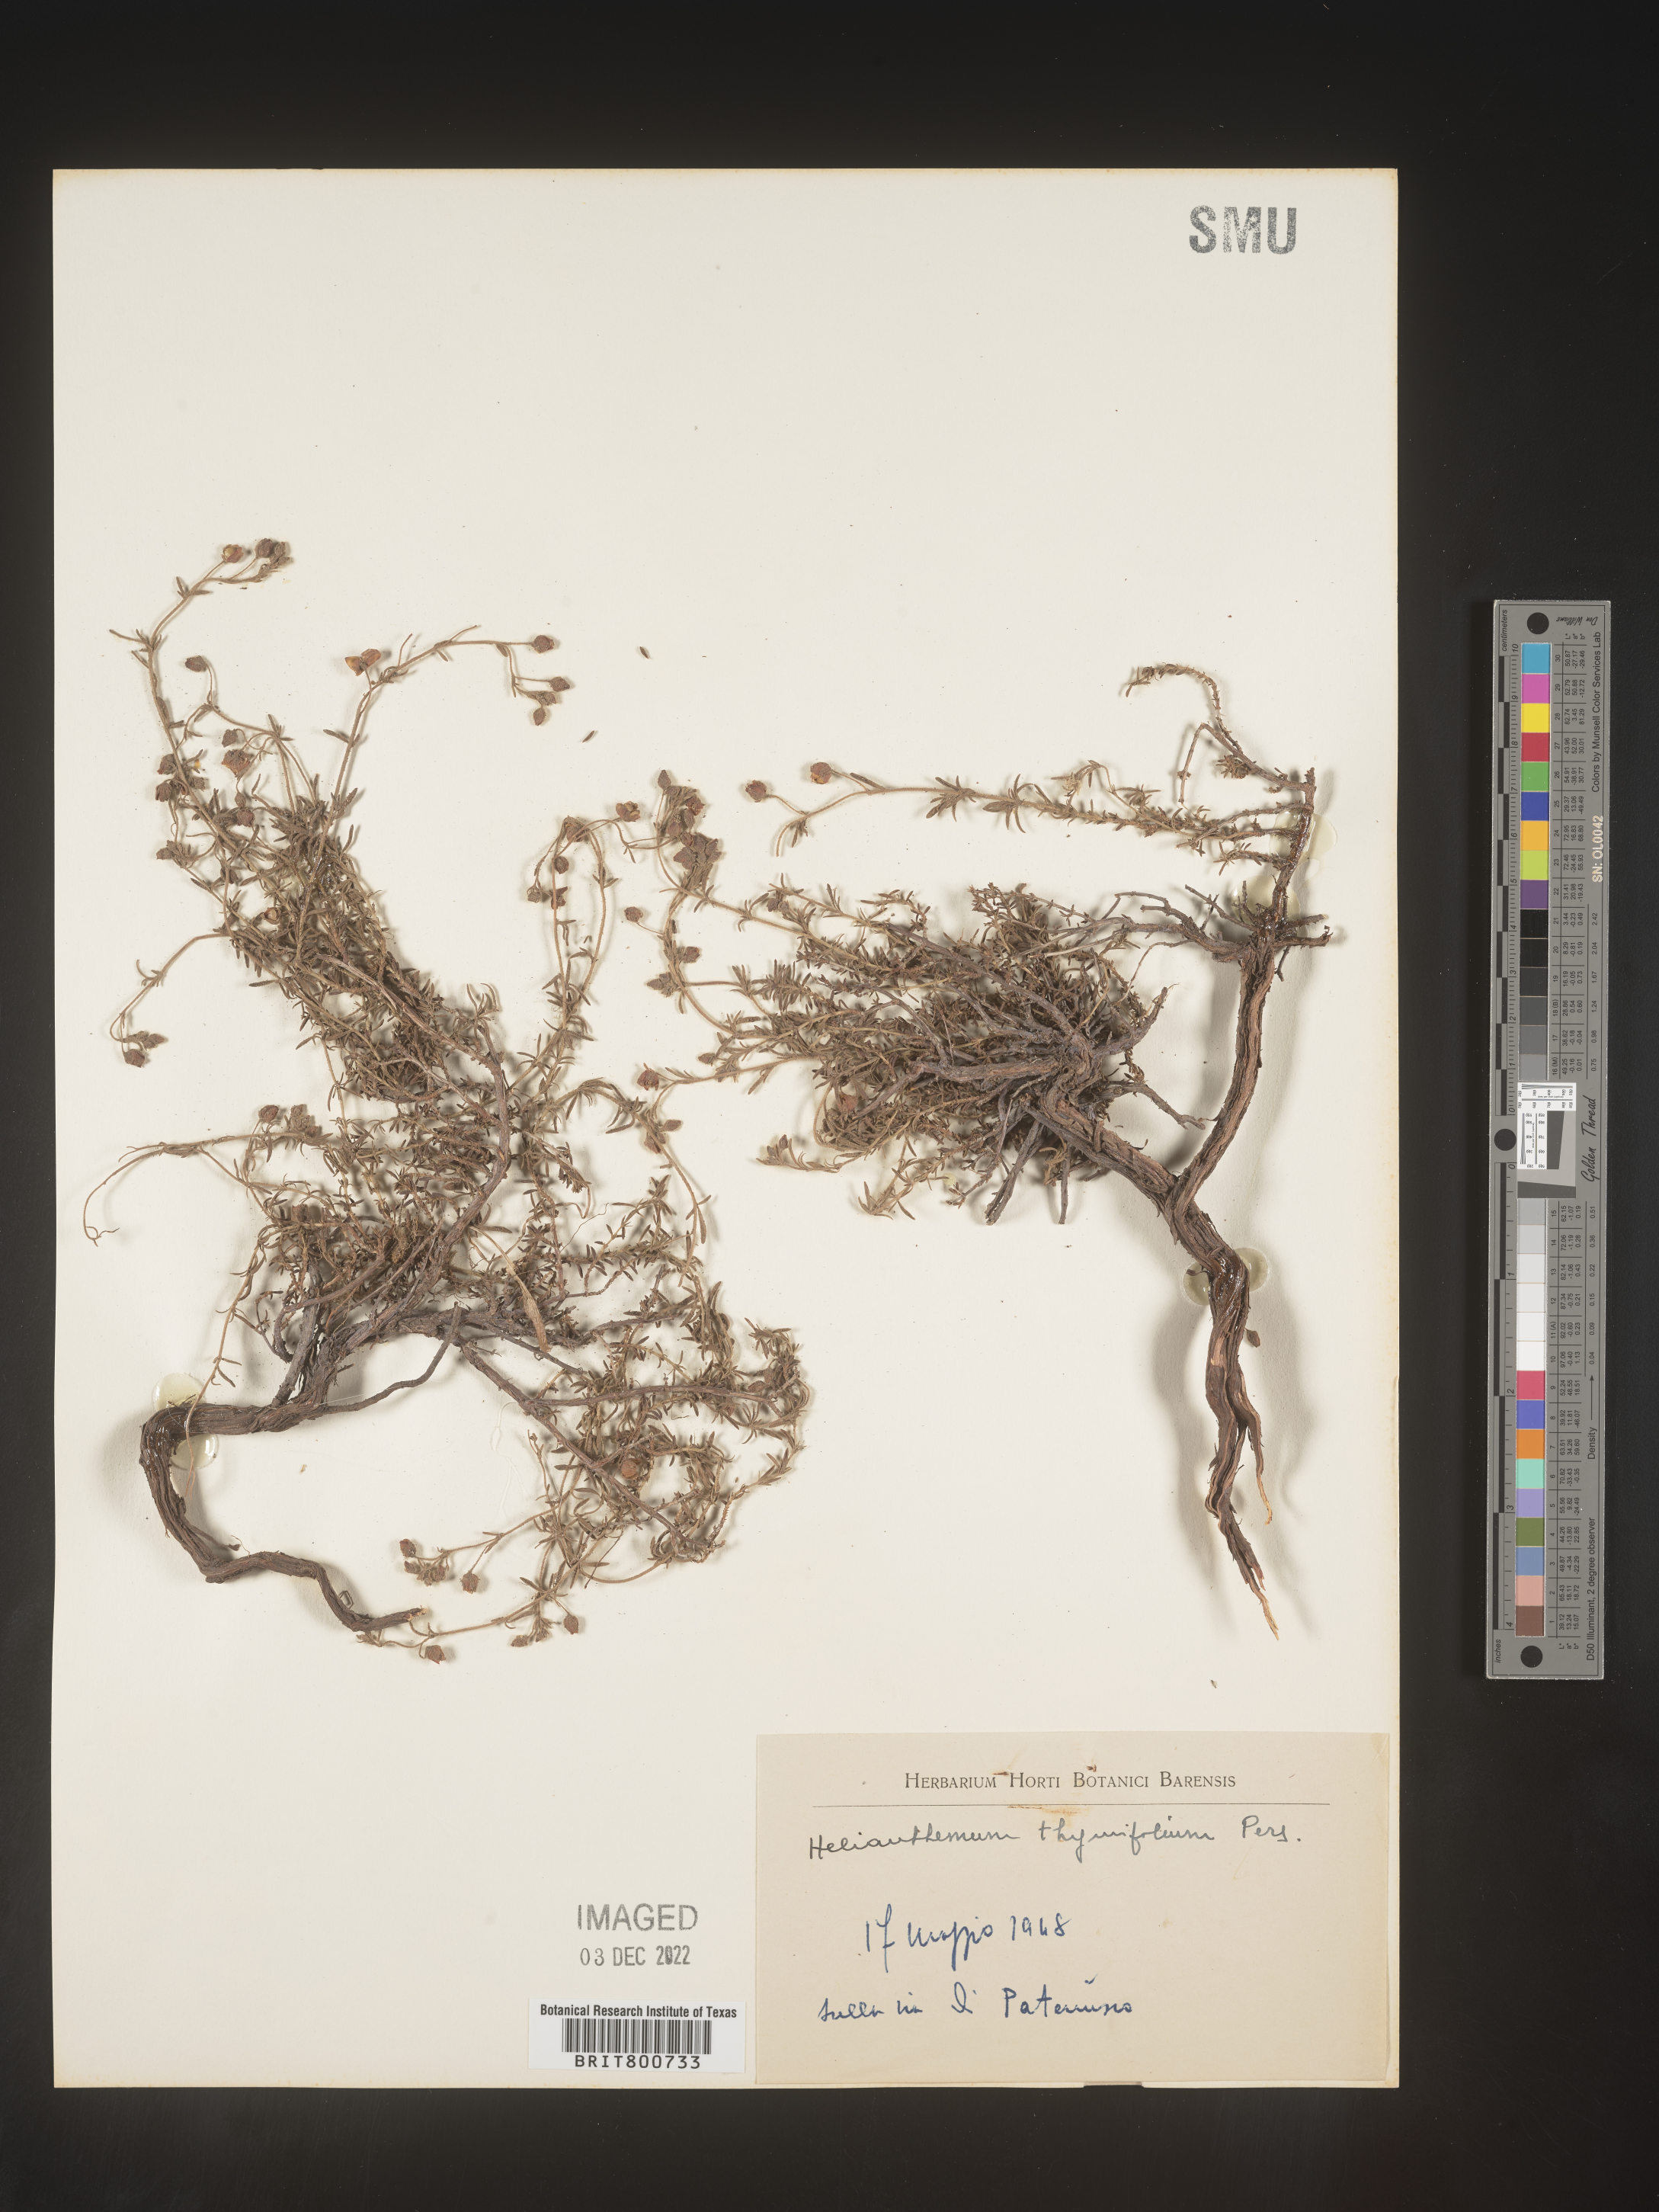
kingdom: Plantae
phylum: Tracheophyta
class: Magnoliopsida
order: Malvales
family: Cistaceae
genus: Helianthemum
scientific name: Helianthemum
